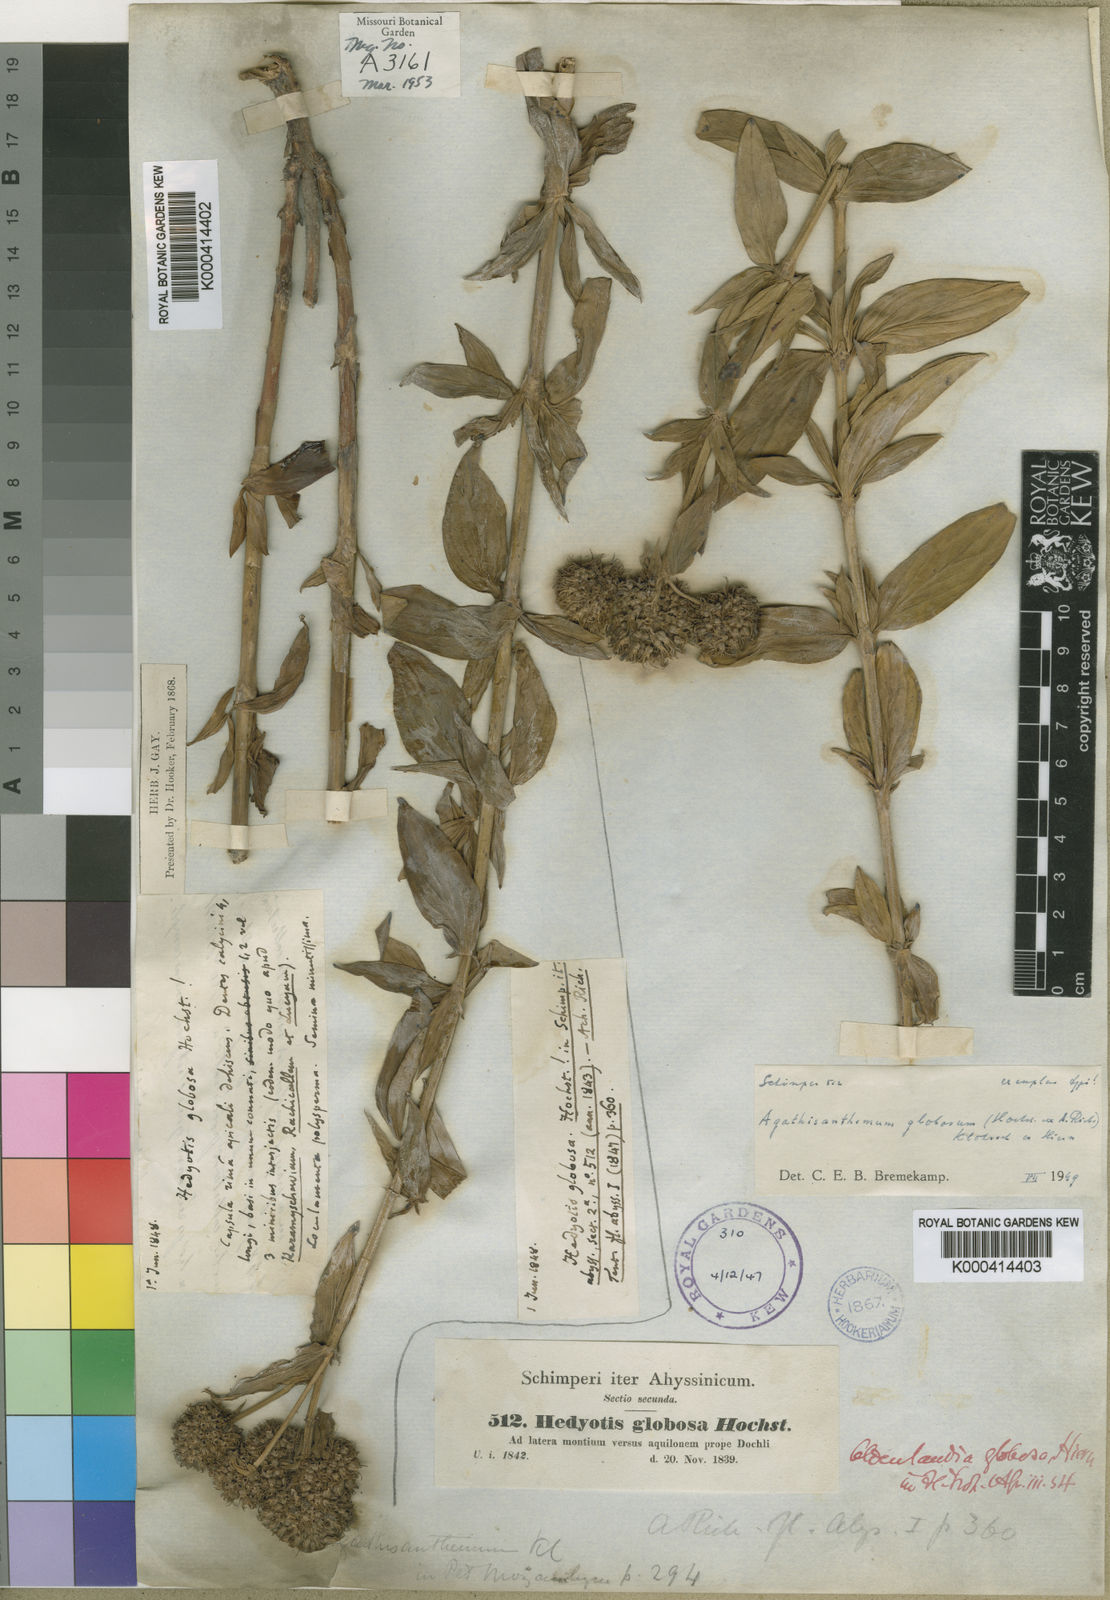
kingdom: Plantae
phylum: Tracheophyta
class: Magnoliopsida
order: Gentianales
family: Rubiaceae
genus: Agathisanthemum
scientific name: Agathisanthemum globosum
